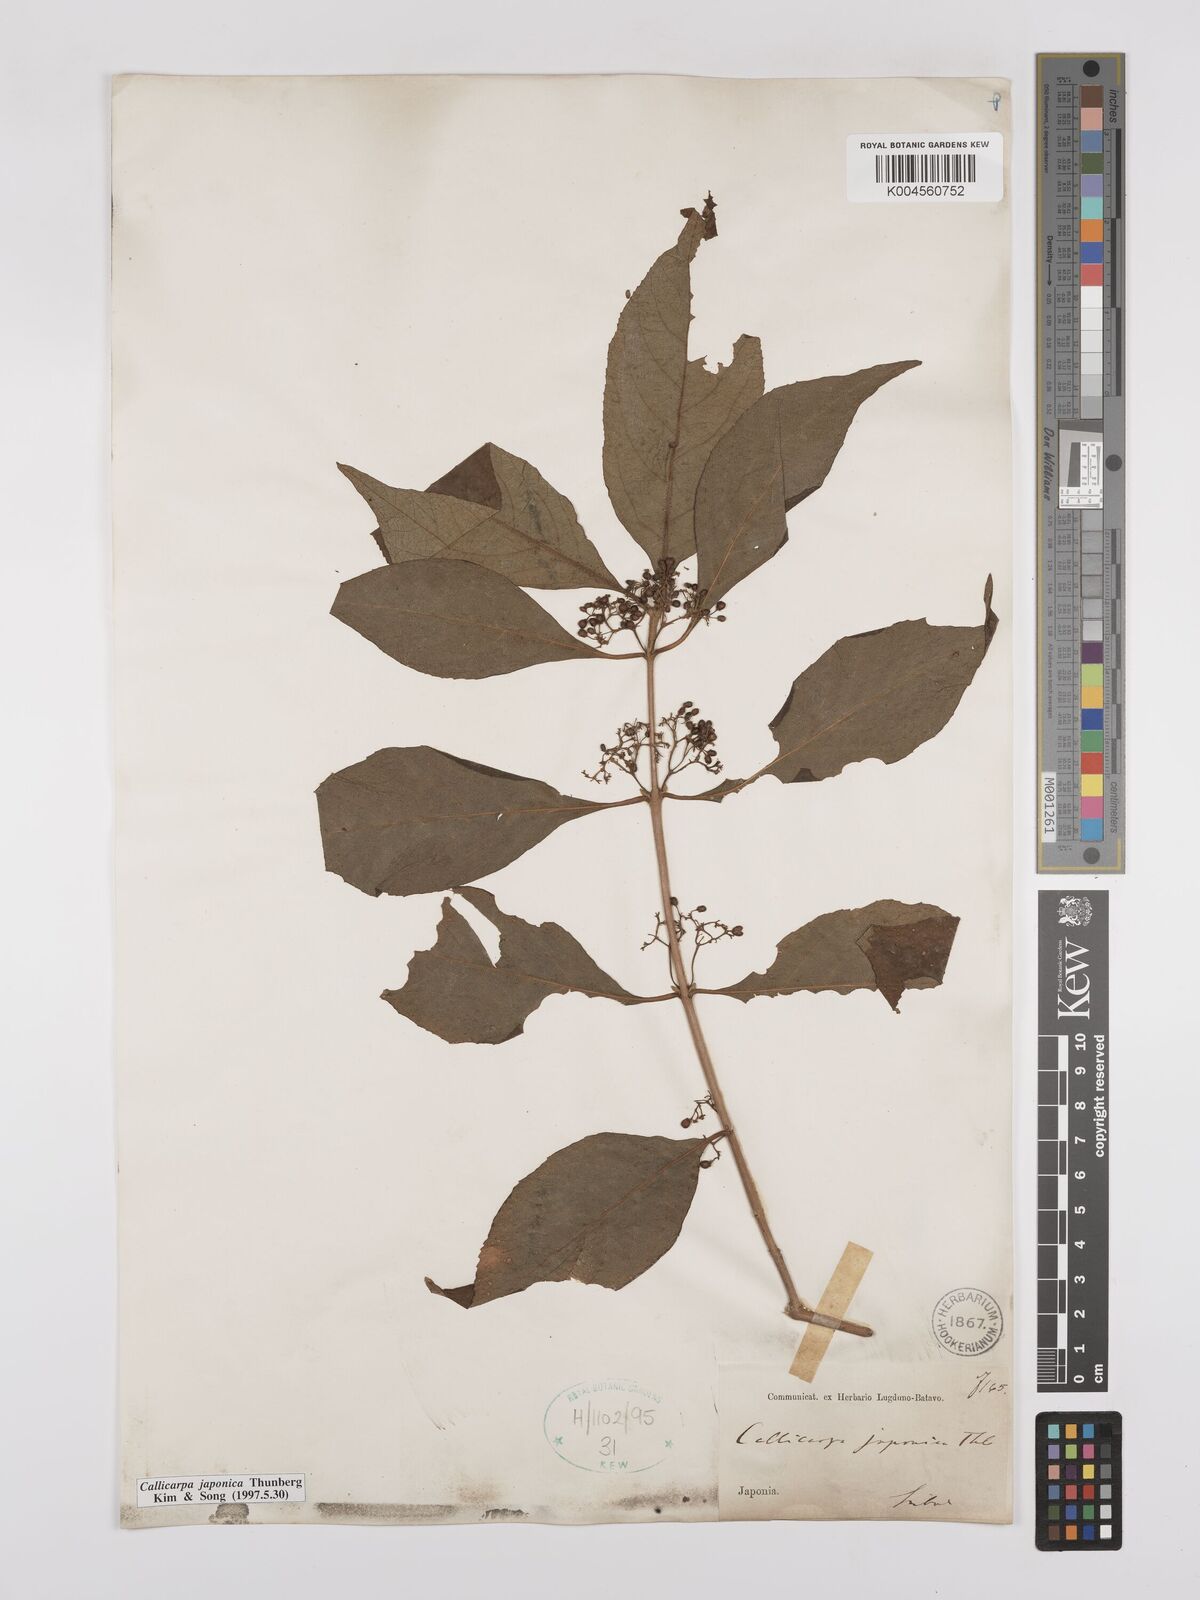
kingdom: Plantae
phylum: Tracheophyta
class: Magnoliopsida
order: Lamiales
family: Lamiaceae
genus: Callicarpa
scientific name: Callicarpa japonica
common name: Japanese beauty-berry
